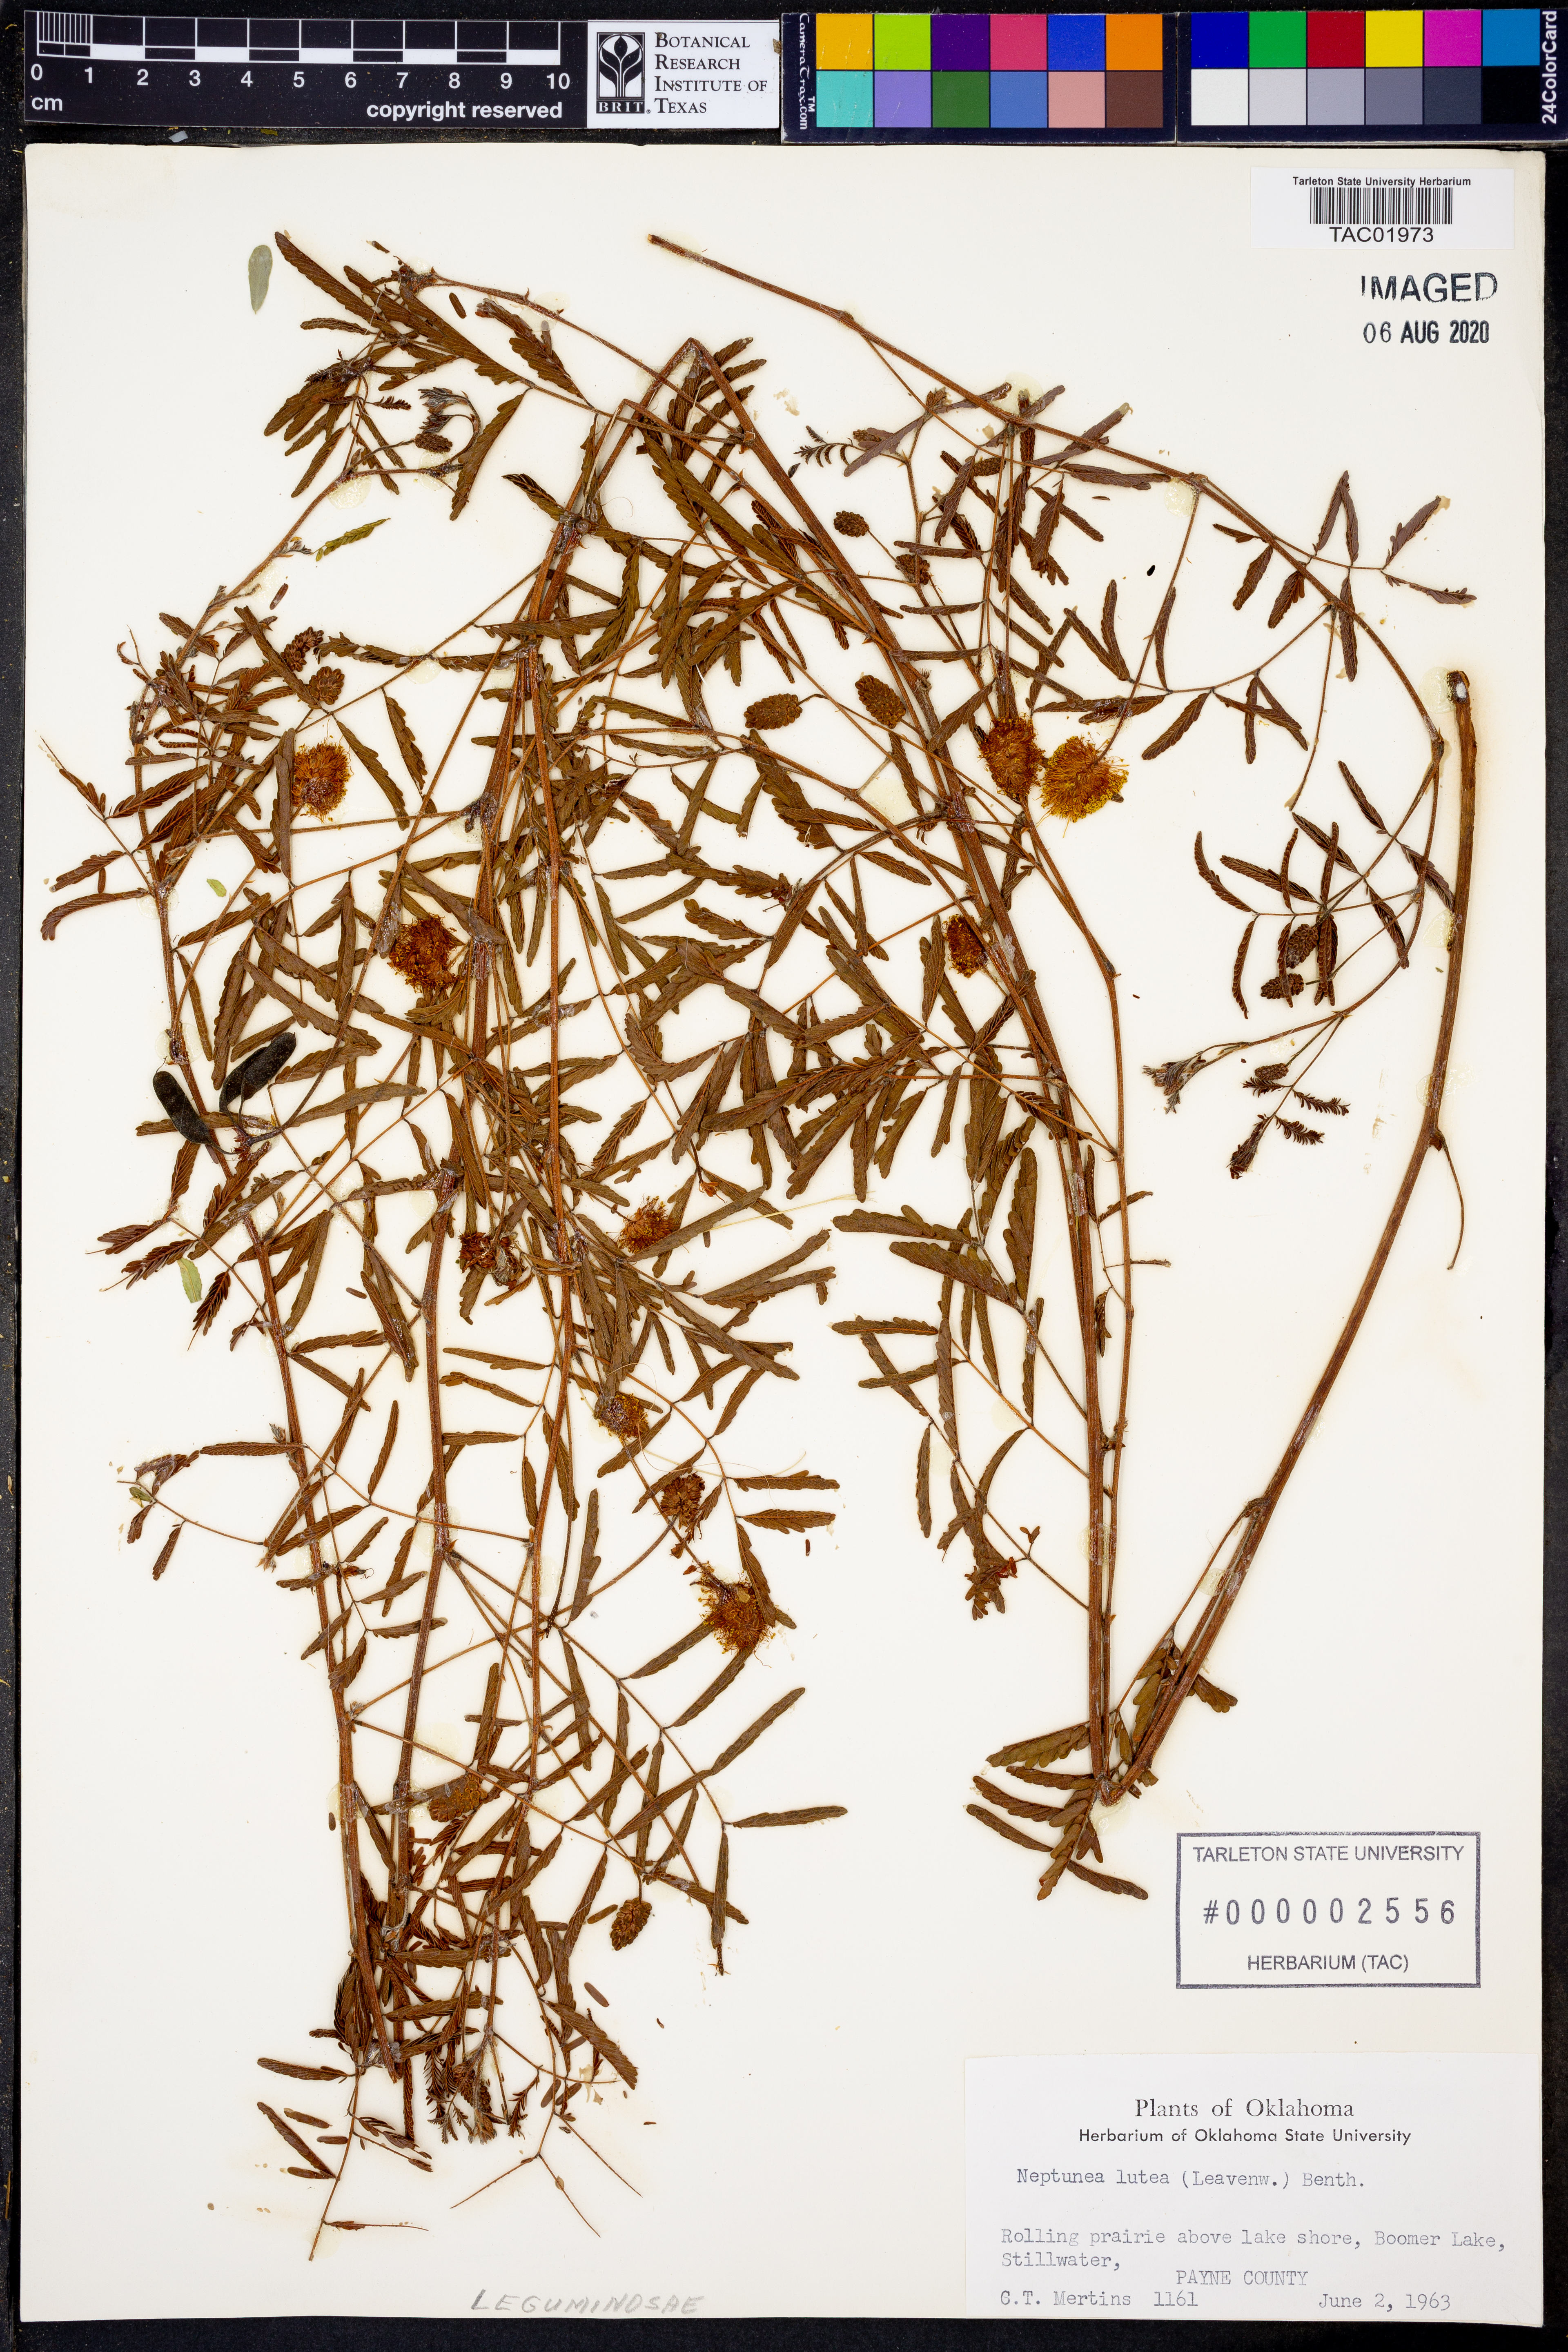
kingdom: Plantae
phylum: Tracheophyta
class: Magnoliopsida
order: Fabales
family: Fabaceae
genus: Neptunia
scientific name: Neptunia lutea
